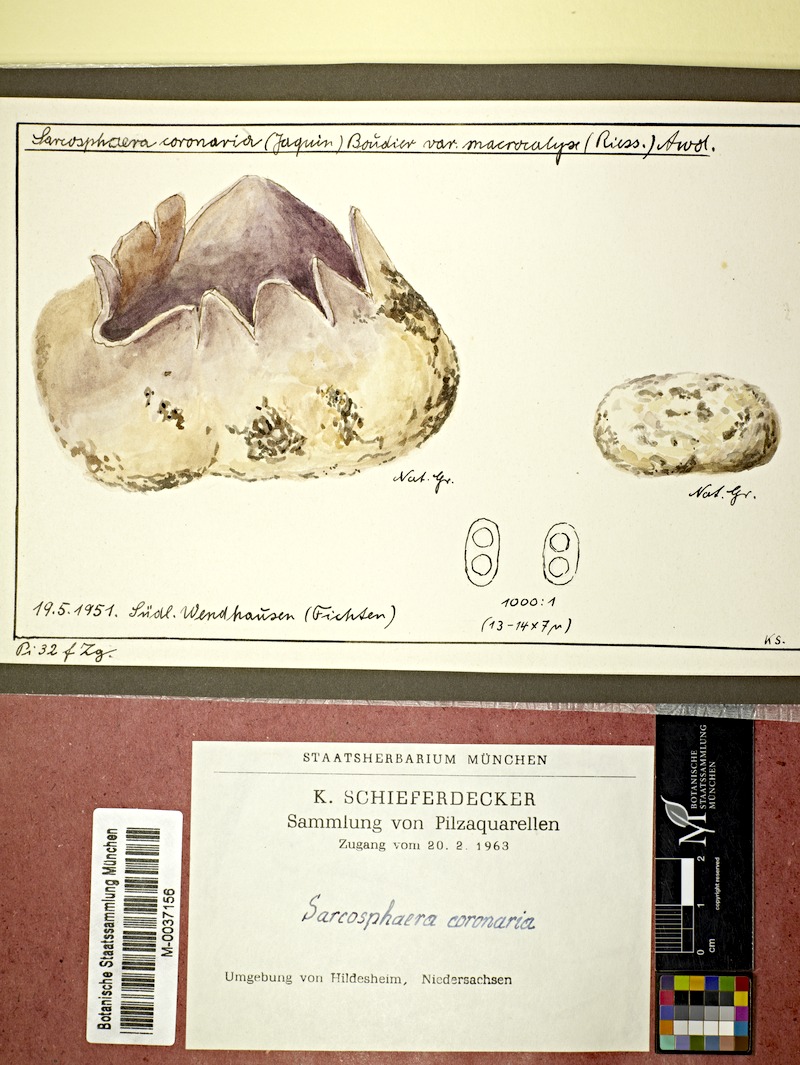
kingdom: Fungi
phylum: Ascomycota
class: Pezizomycetes
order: Pezizales
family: Pezizaceae
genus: Sarcosphaera
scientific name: Sarcosphaera coronaria
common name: Violet crowncup
